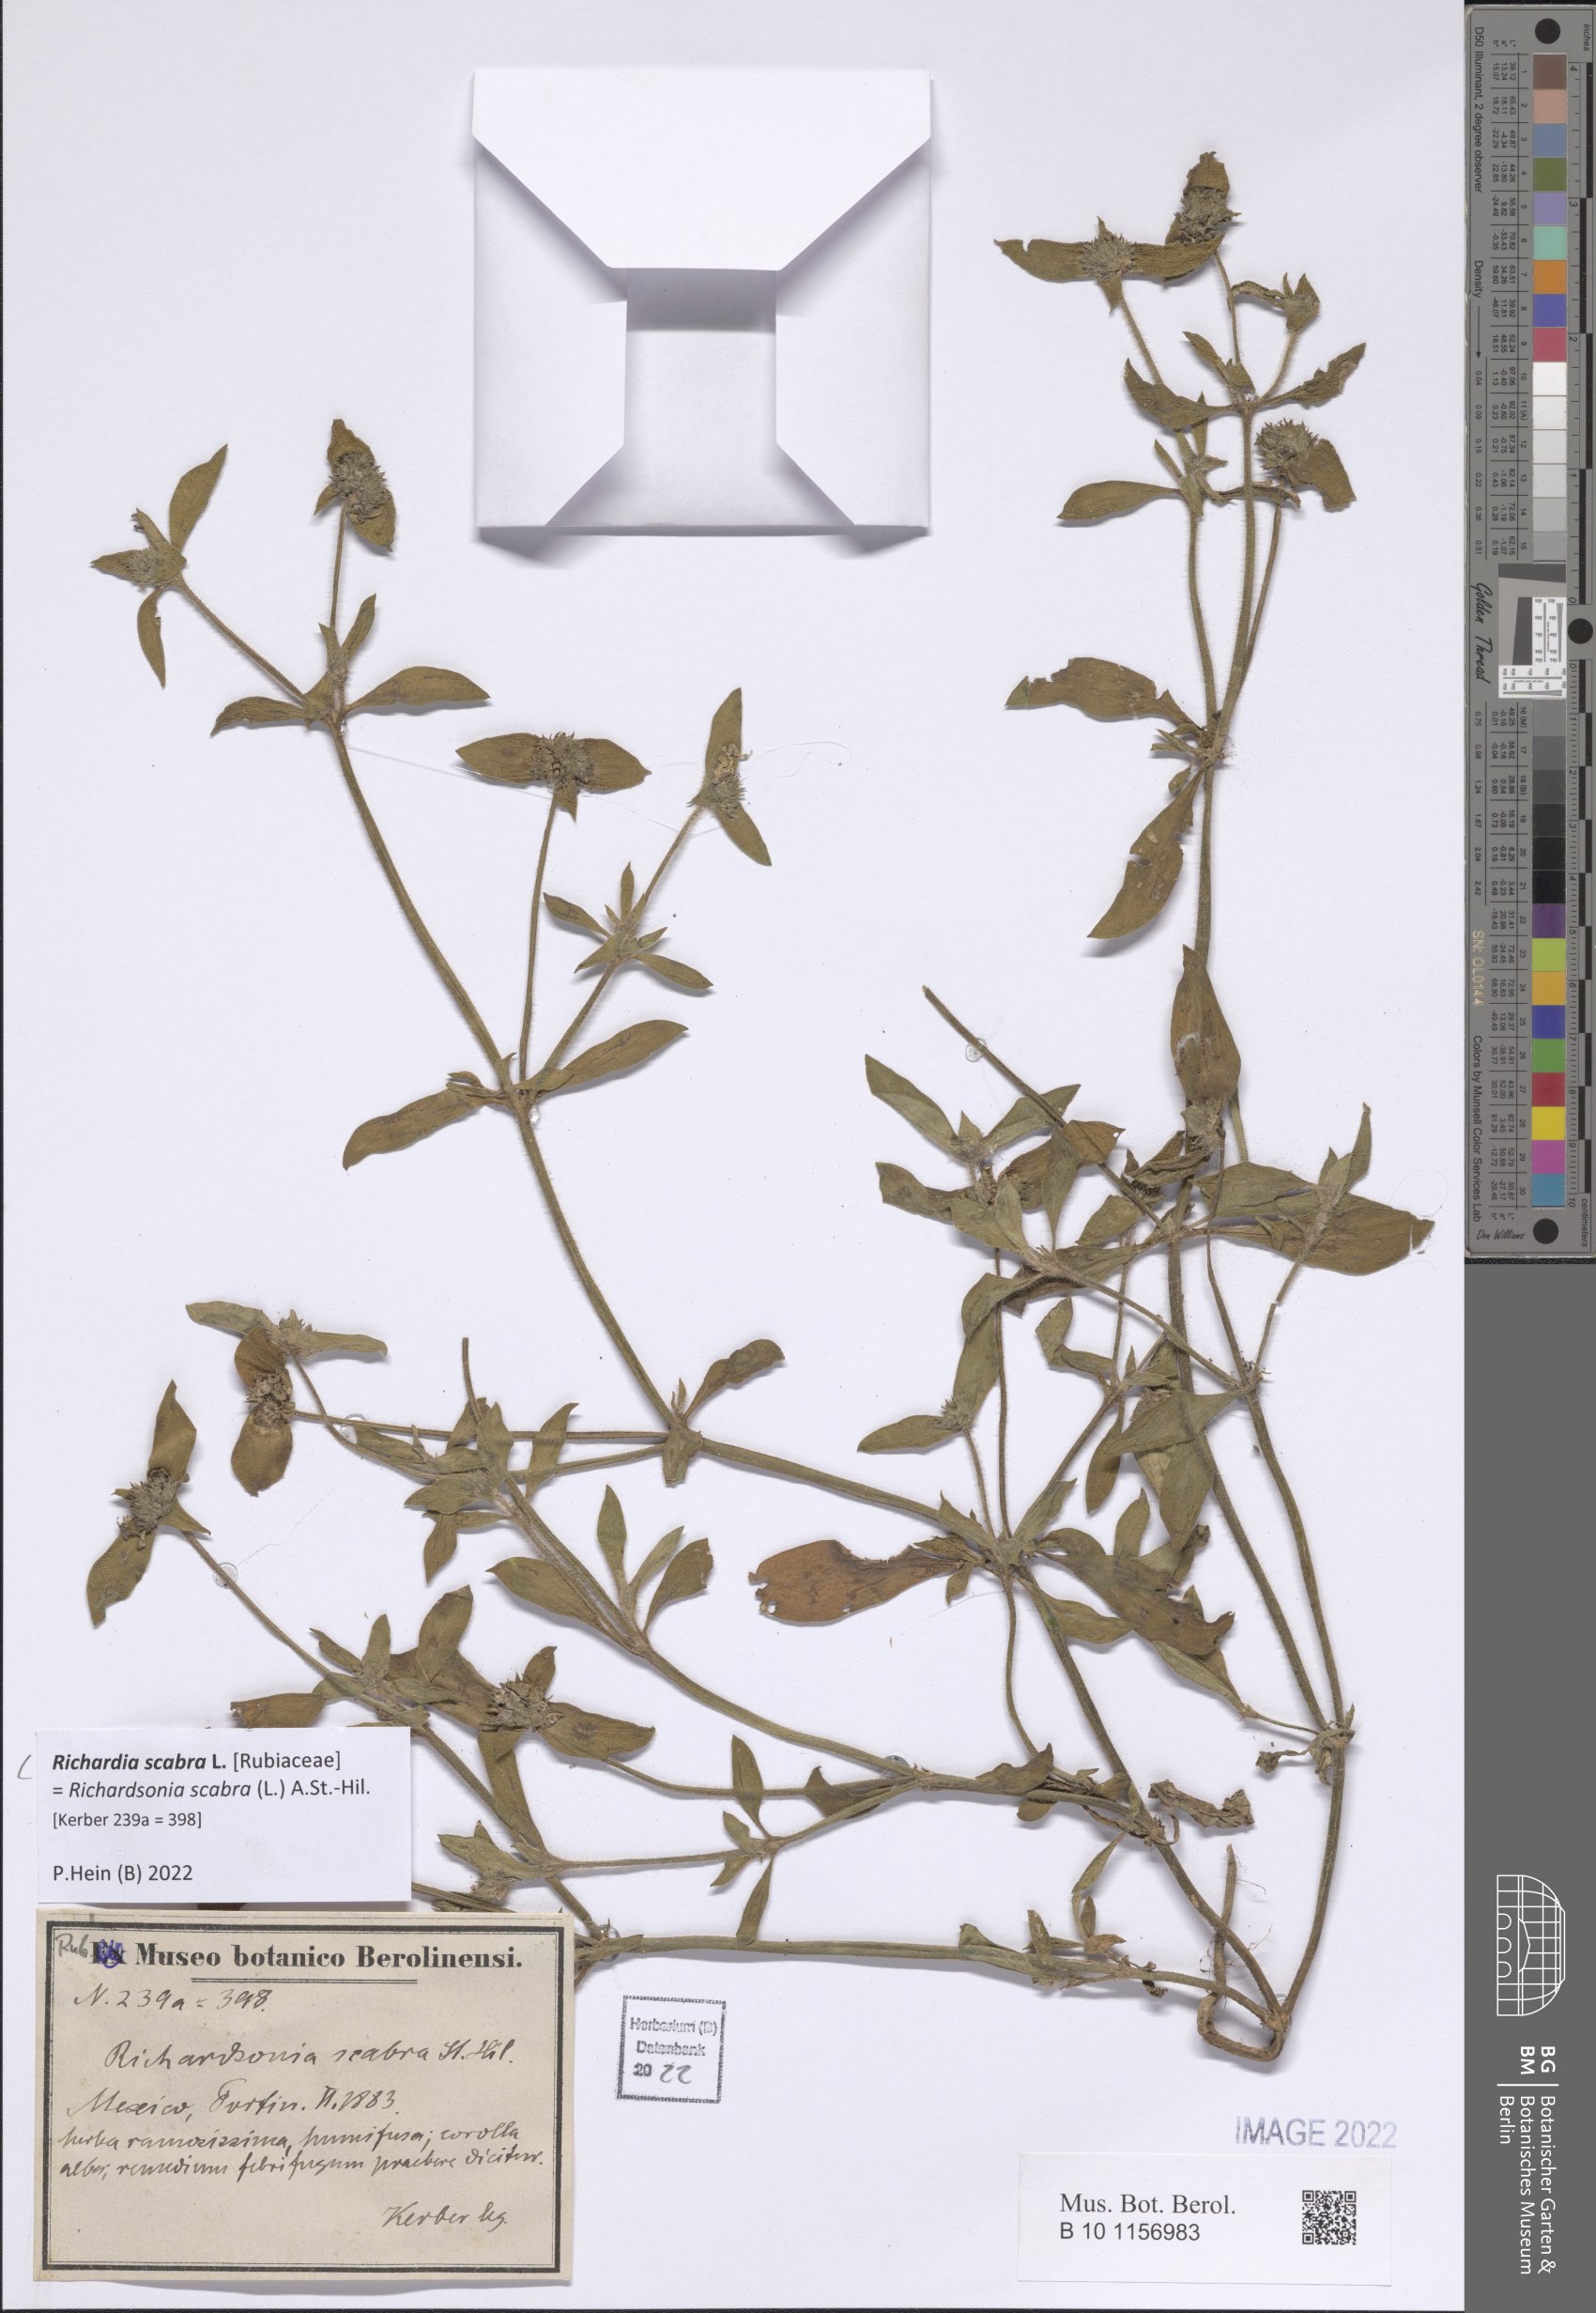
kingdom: Plantae
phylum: Tracheophyta
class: Magnoliopsida
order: Gentianales
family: Rubiaceae
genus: Richardia
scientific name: Richardia scabra
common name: Rough mexican clover
